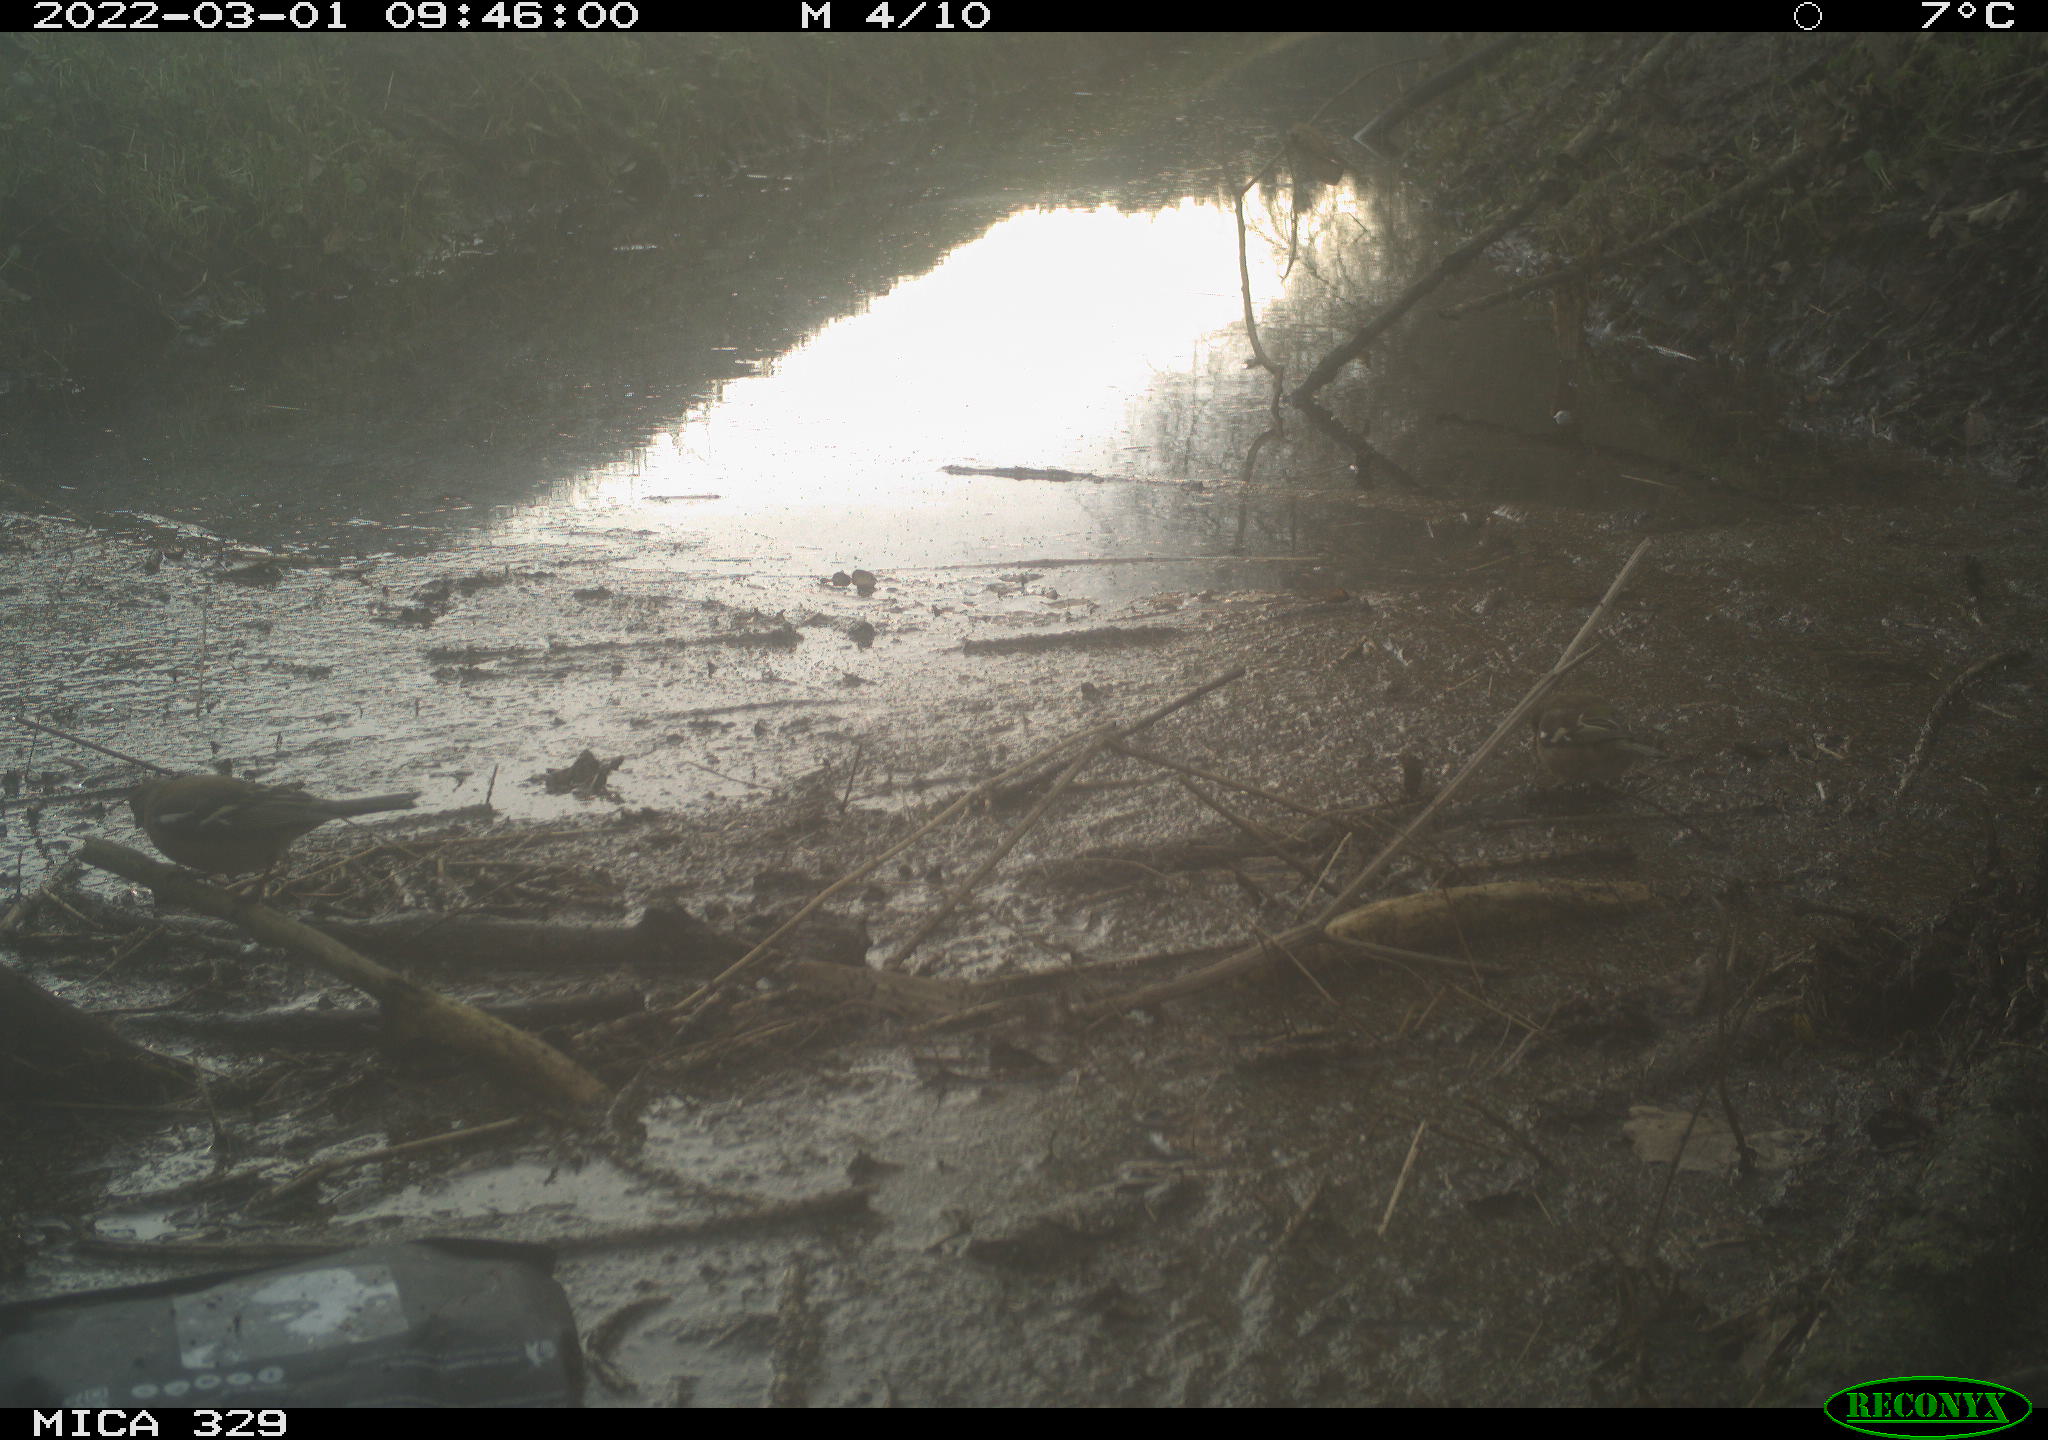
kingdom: Animalia
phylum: Chordata
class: Aves
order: Passeriformes
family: Fringillidae
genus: Fringilla
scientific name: Fringilla coelebs
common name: Common chaffinch
